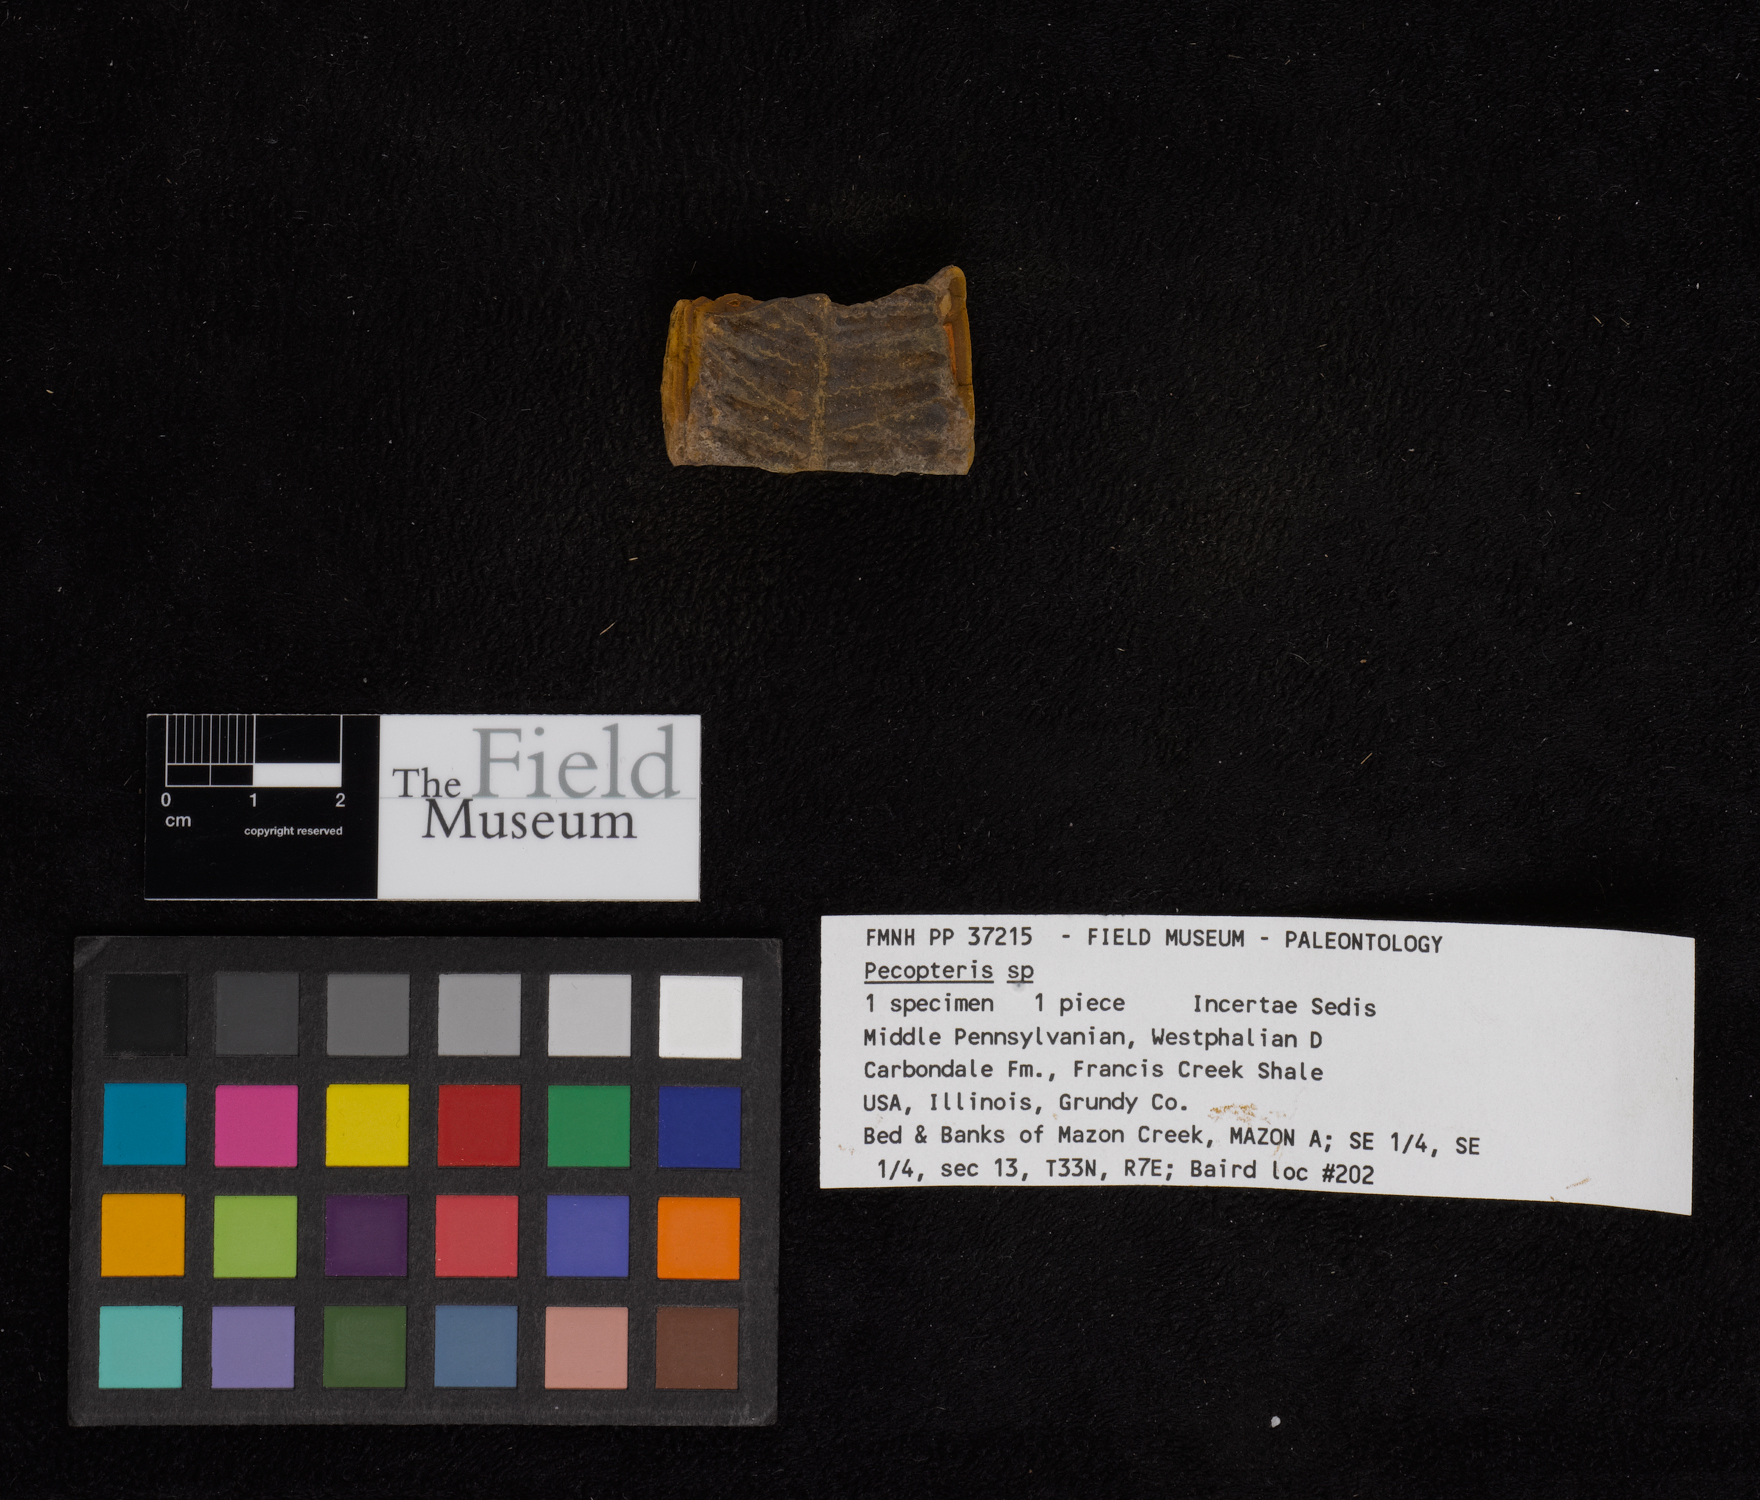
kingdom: Plantae
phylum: Tracheophyta
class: Polypodiopsida
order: Marattiales
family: Asterothecaceae
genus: Pecopteris
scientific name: Pecopteris
